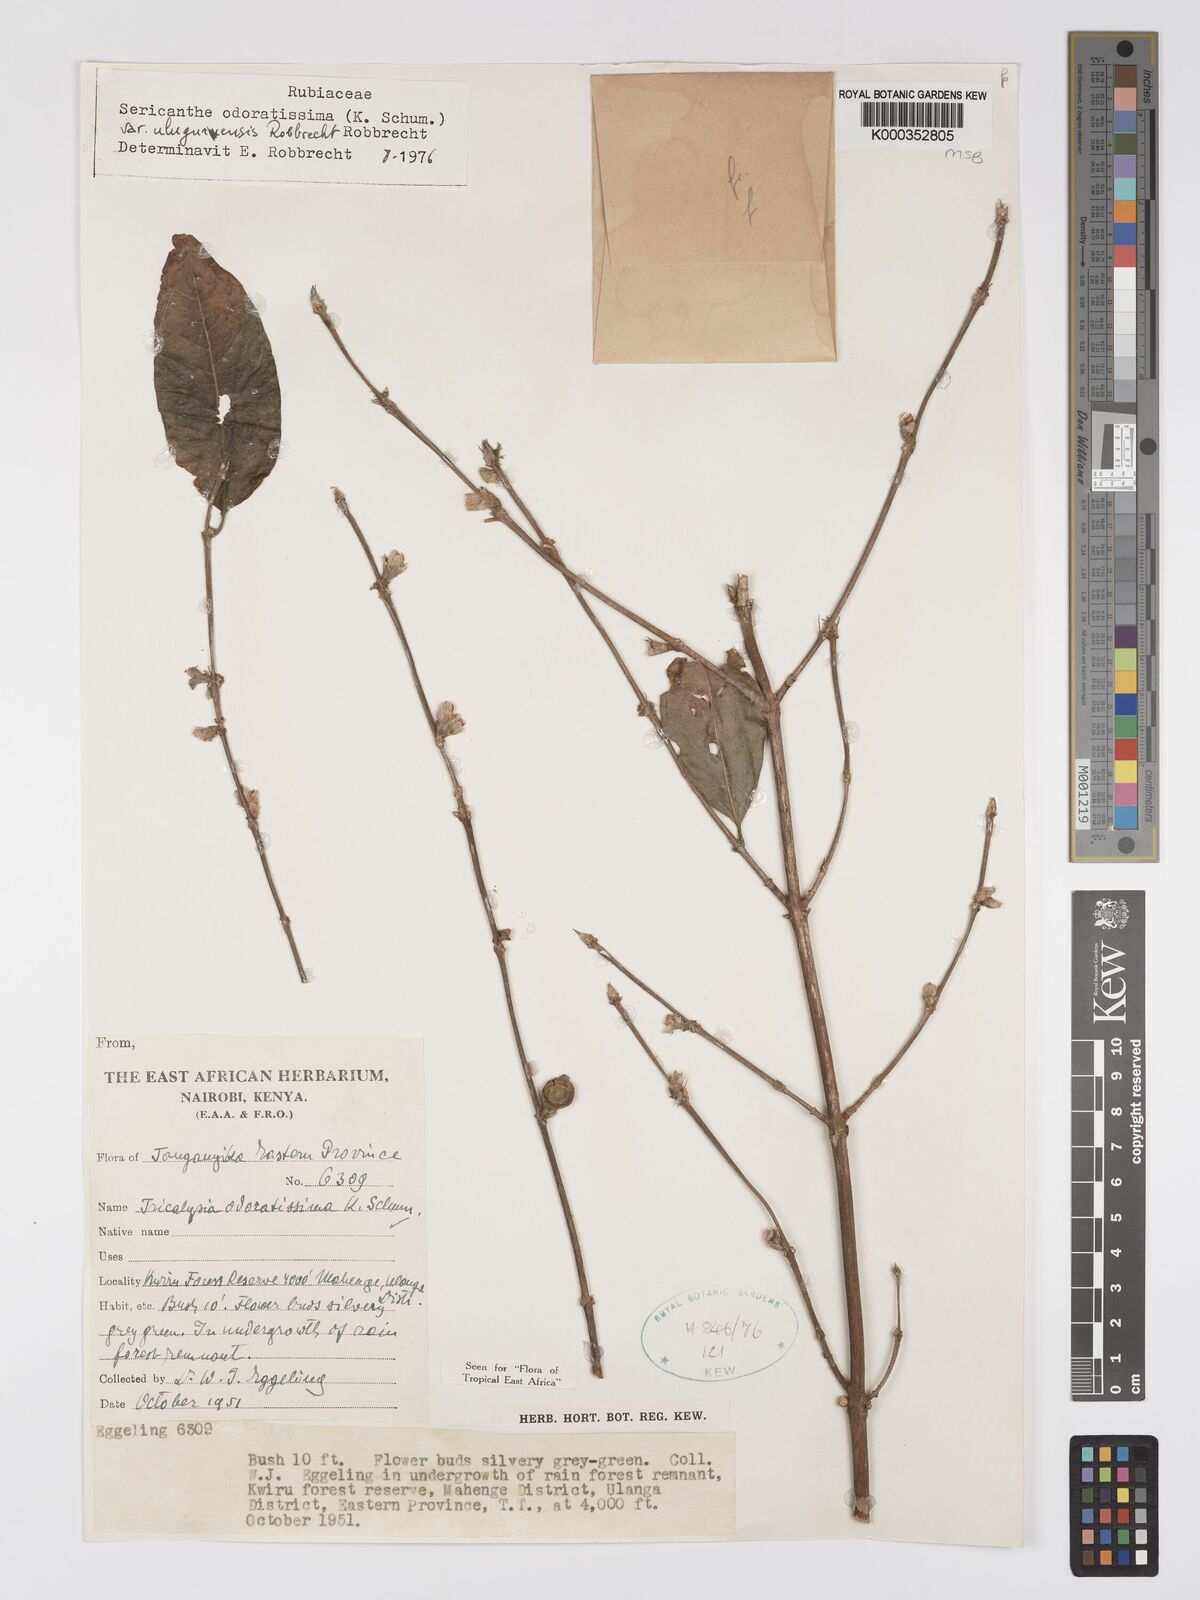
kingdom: Plantae
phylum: Tracheophyta
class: Magnoliopsida
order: Gentianales
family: Rubiaceae
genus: Sericanthe
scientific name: Sericanthe odoratissima
